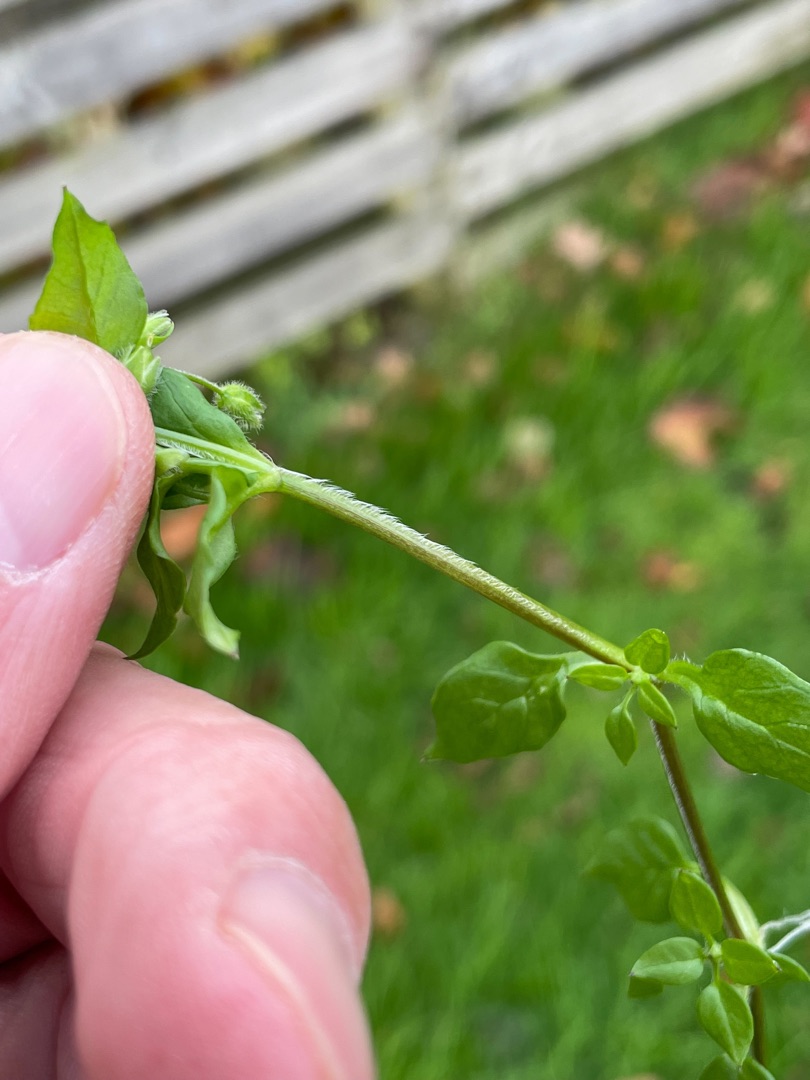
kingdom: Plantae
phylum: Tracheophyta
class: Magnoliopsida
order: Caryophyllales
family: Caryophyllaceae
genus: Stellaria
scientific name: Stellaria media
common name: Almindelig fuglegræs
